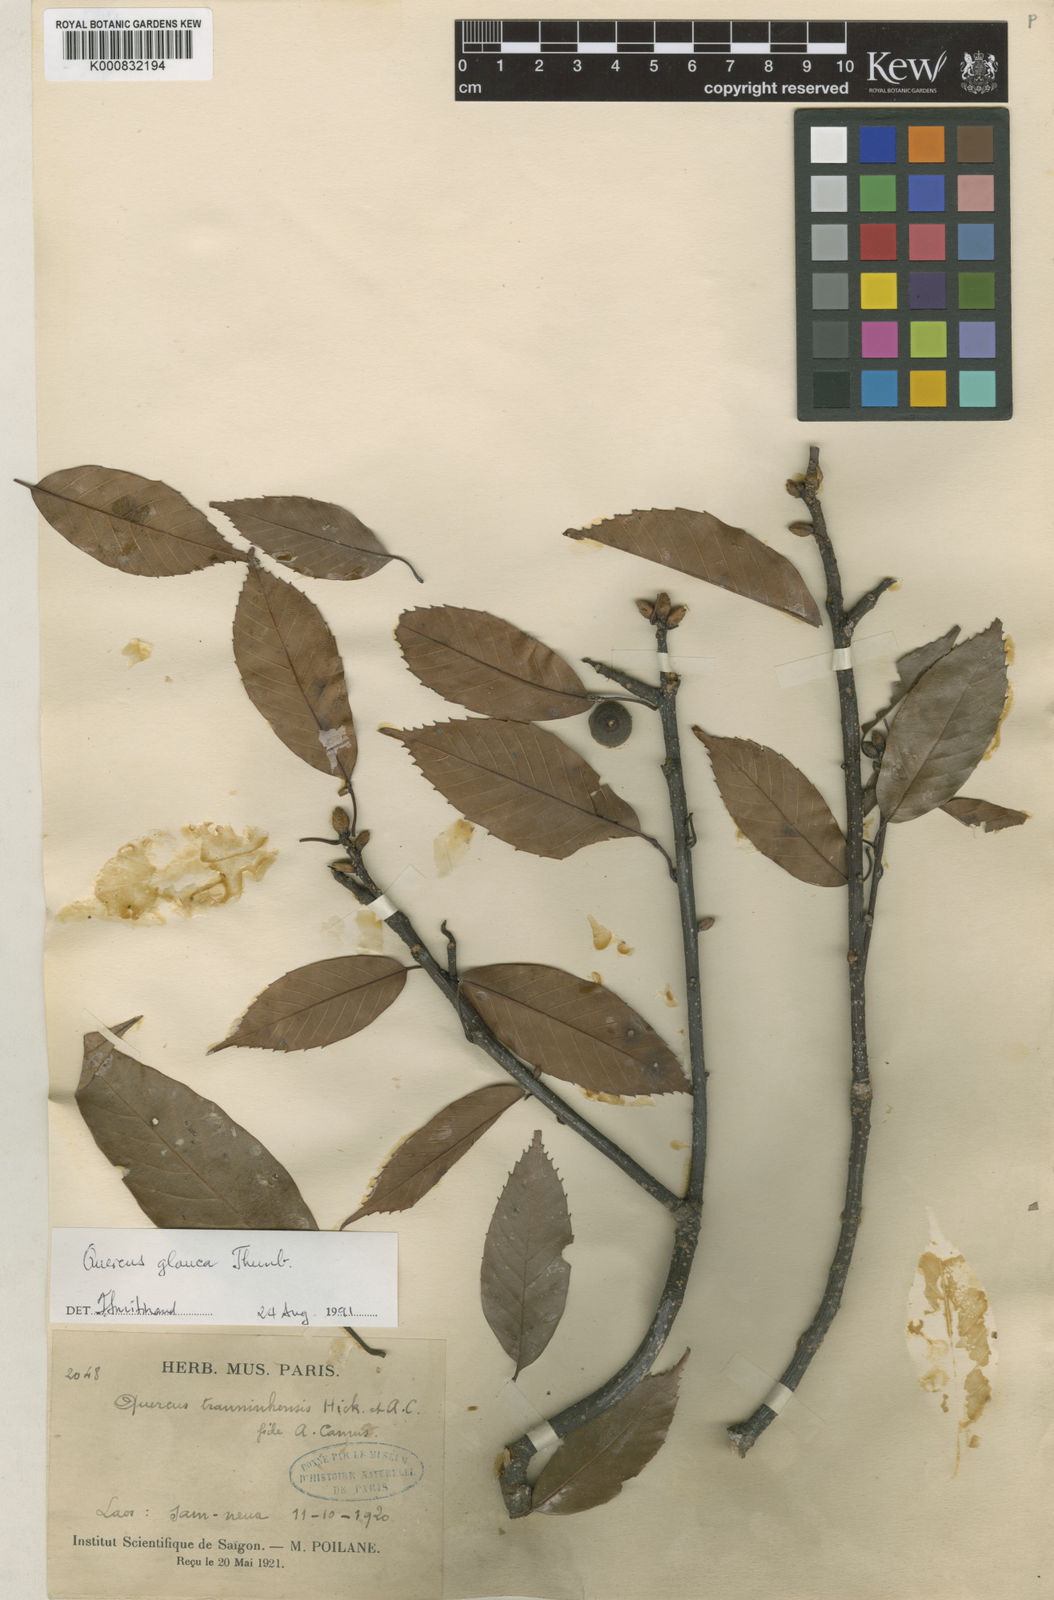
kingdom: Plantae
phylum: Tracheophyta
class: Magnoliopsida
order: Fagales
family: Fagaceae
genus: Quercus
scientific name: Quercus glauca
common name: Ring-cup oak
